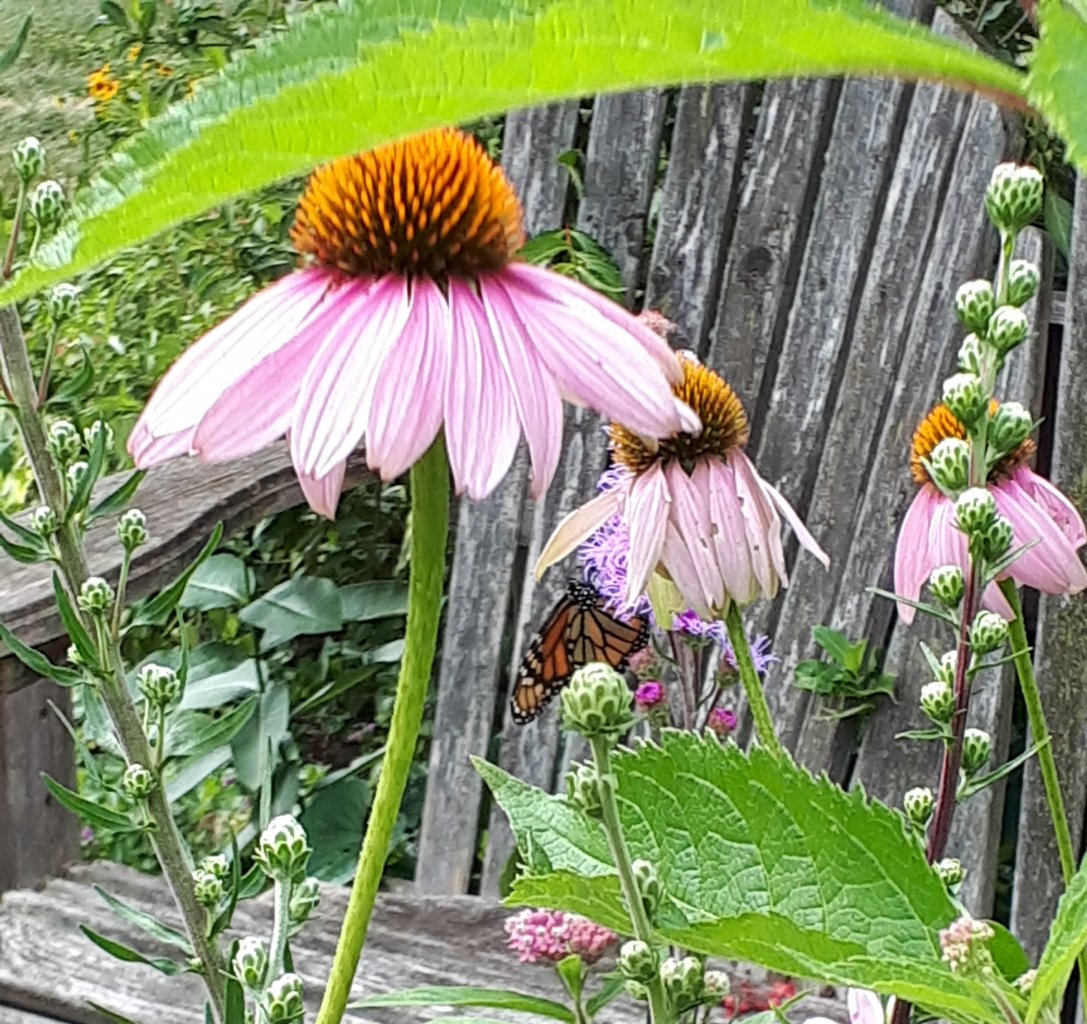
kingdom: Animalia
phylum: Arthropoda
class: Insecta
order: Lepidoptera
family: Nymphalidae
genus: Danaus
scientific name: Danaus plexippus
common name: Monarch
